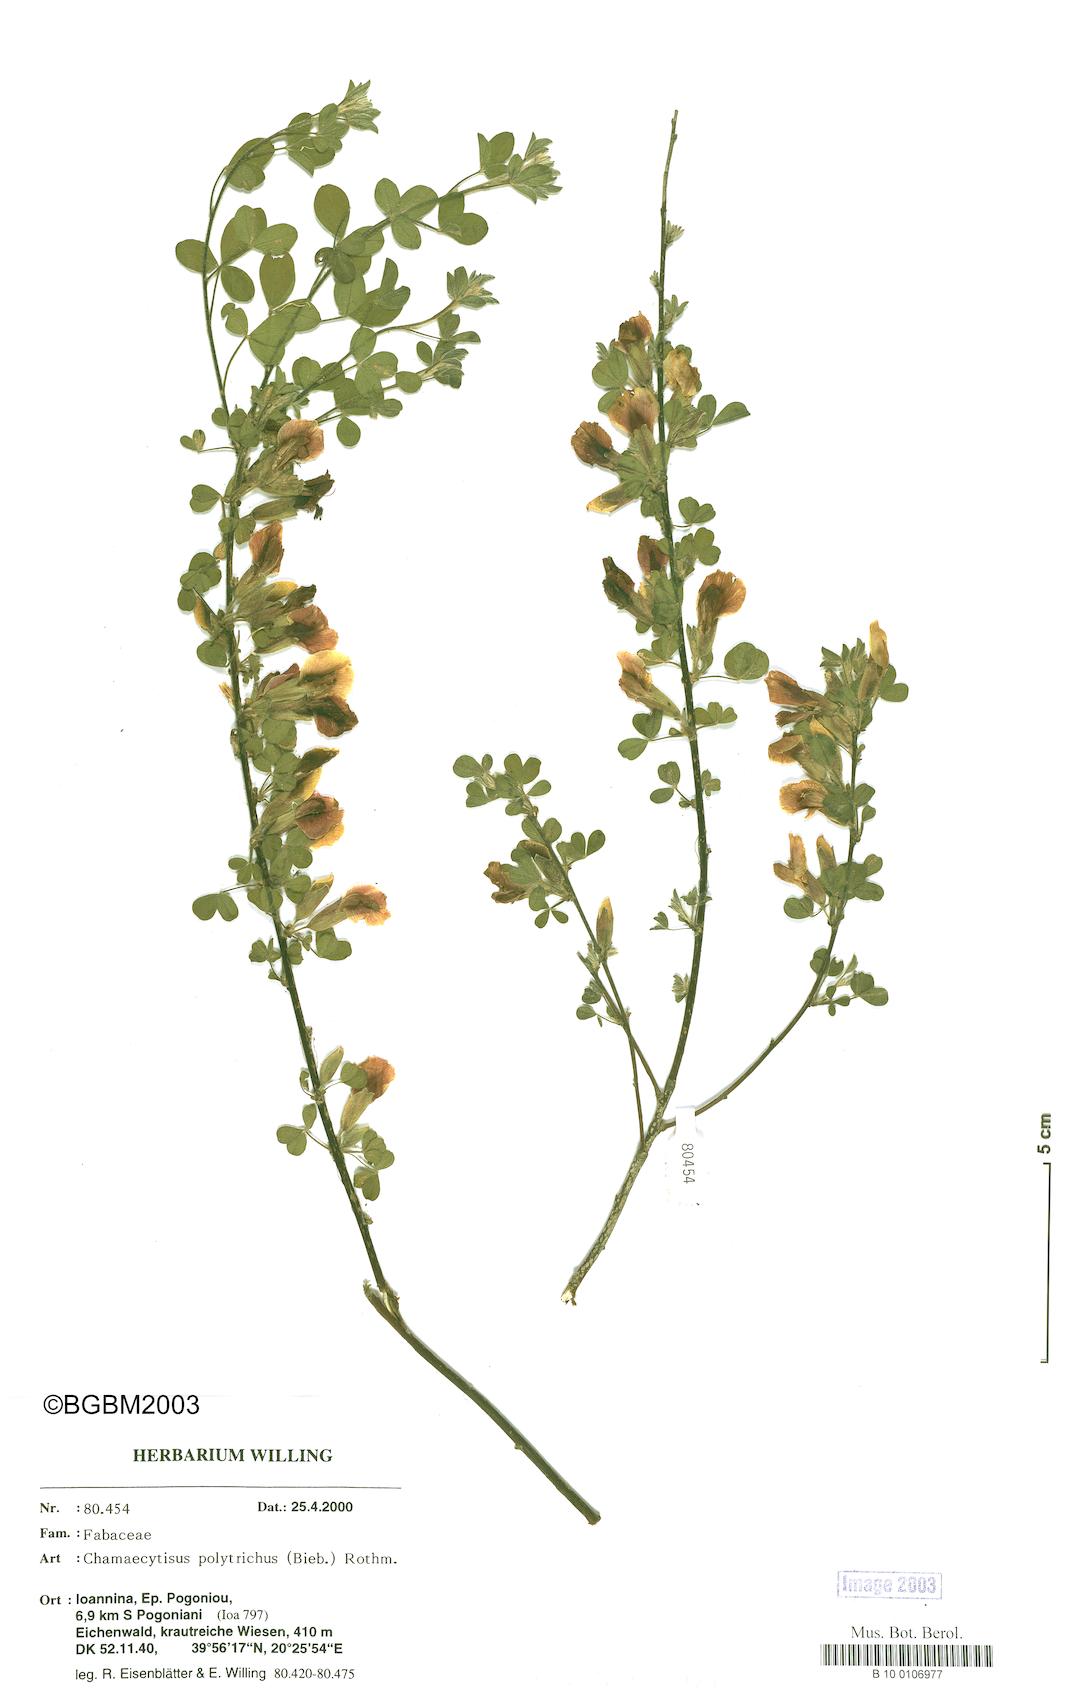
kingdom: Plantae
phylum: Tracheophyta
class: Magnoliopsida
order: Fabales
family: Fabaceae
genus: Chamaecytisus
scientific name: Chamaecytisus hirsutus
